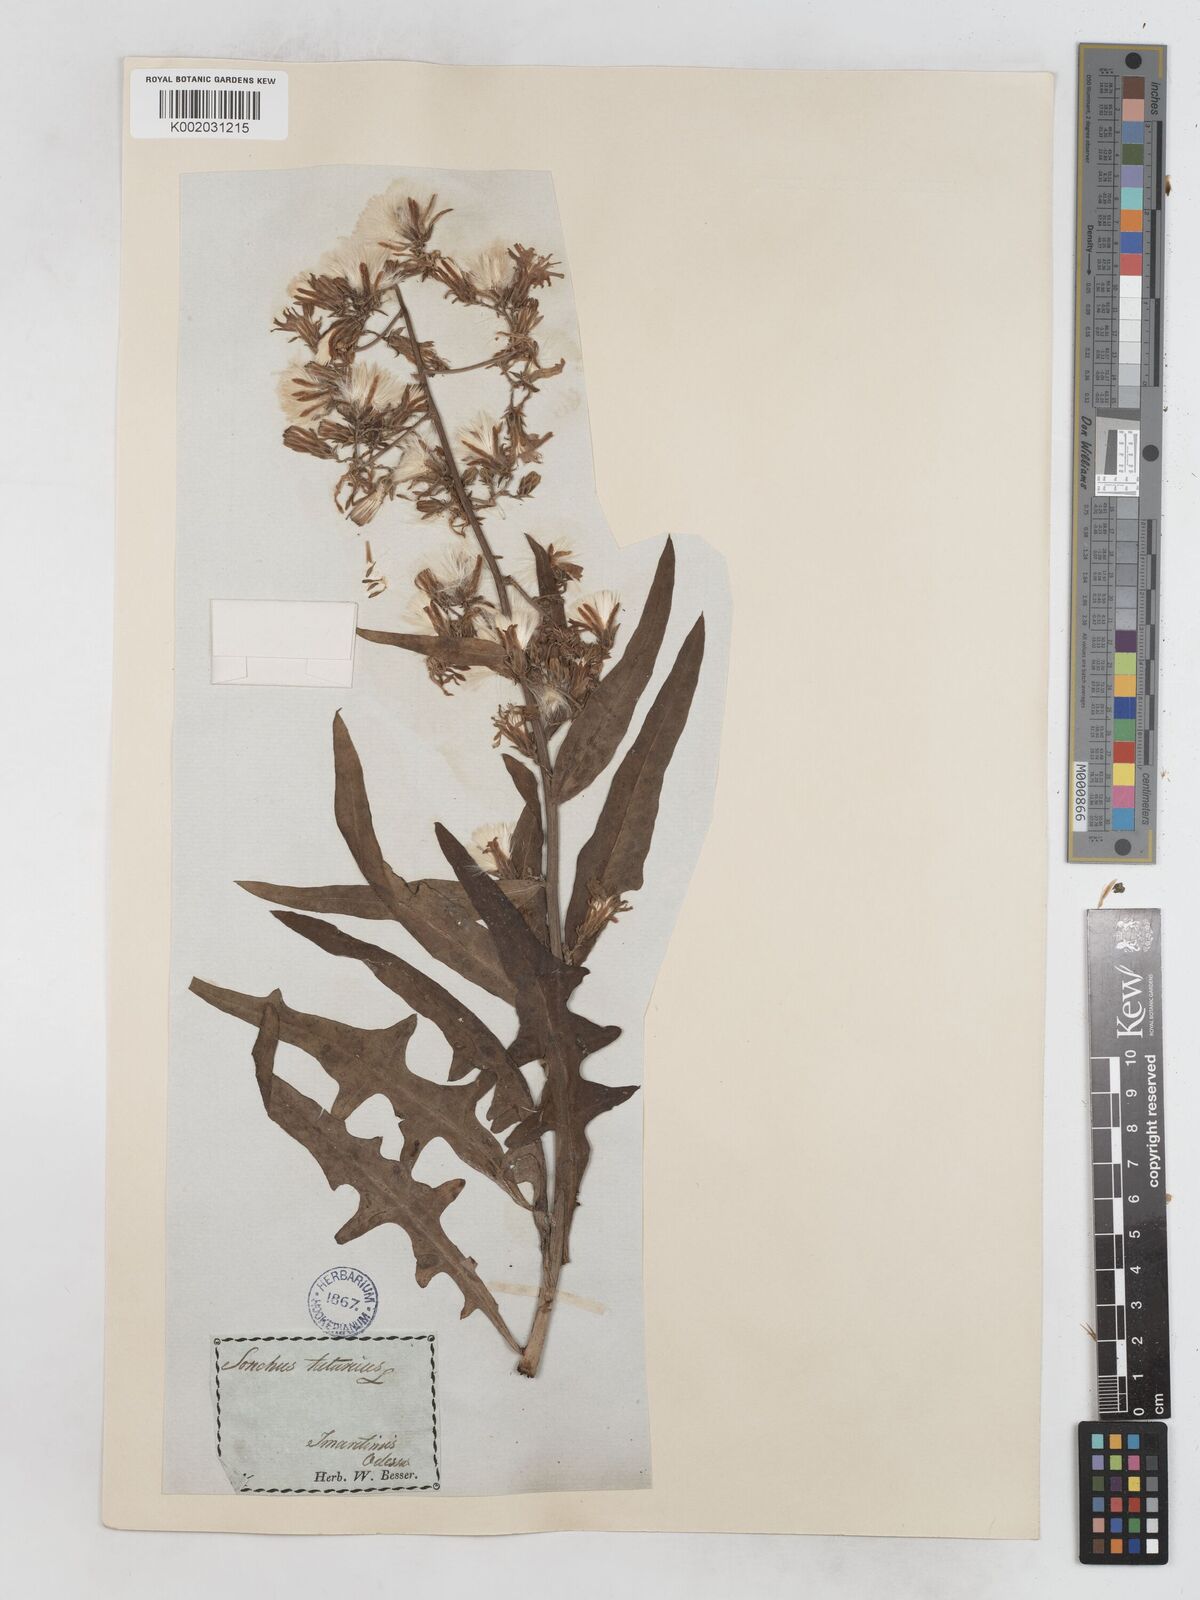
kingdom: Plantae
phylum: Tracheophyta
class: Magnoliopsida
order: Asterales
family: Asteraceae
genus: Lactuca
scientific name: Lactuca tatarica
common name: Blue lettuce
